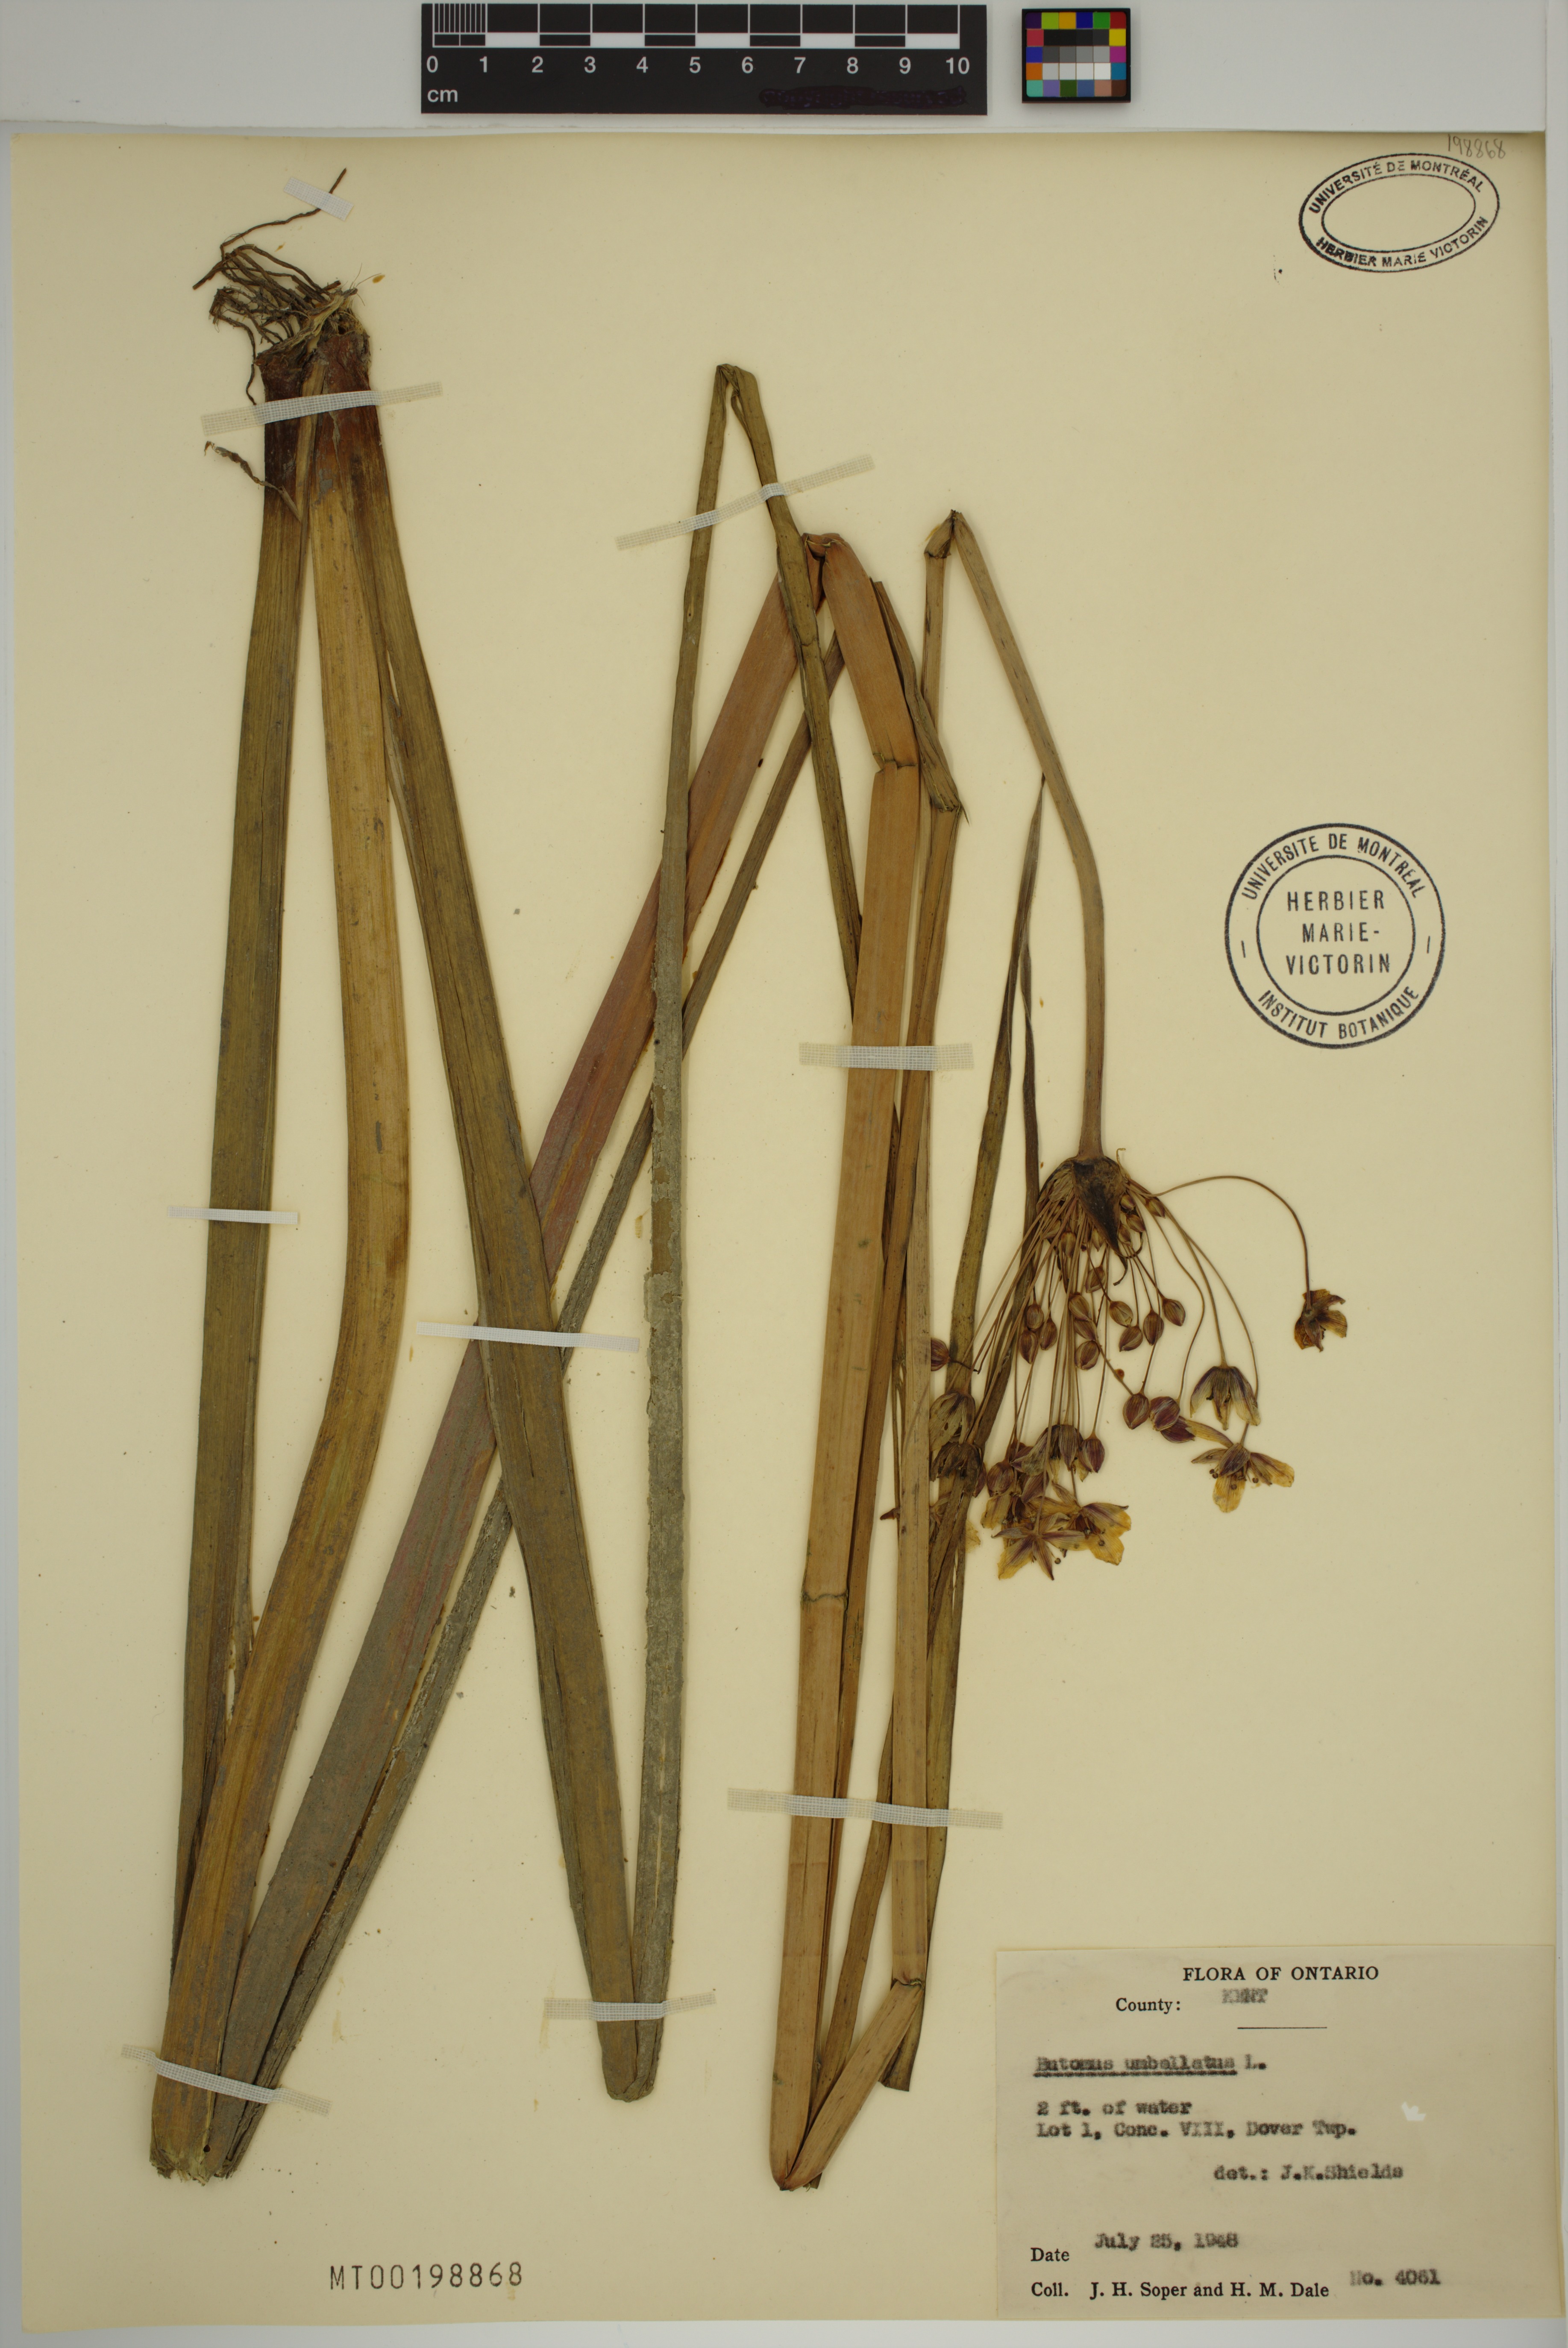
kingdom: Plantae
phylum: Tracheophyta
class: Liliopsida
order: Alismatales
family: Butomaceae
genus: Butomus
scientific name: Butomus umbellatus
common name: Flowering-rush
